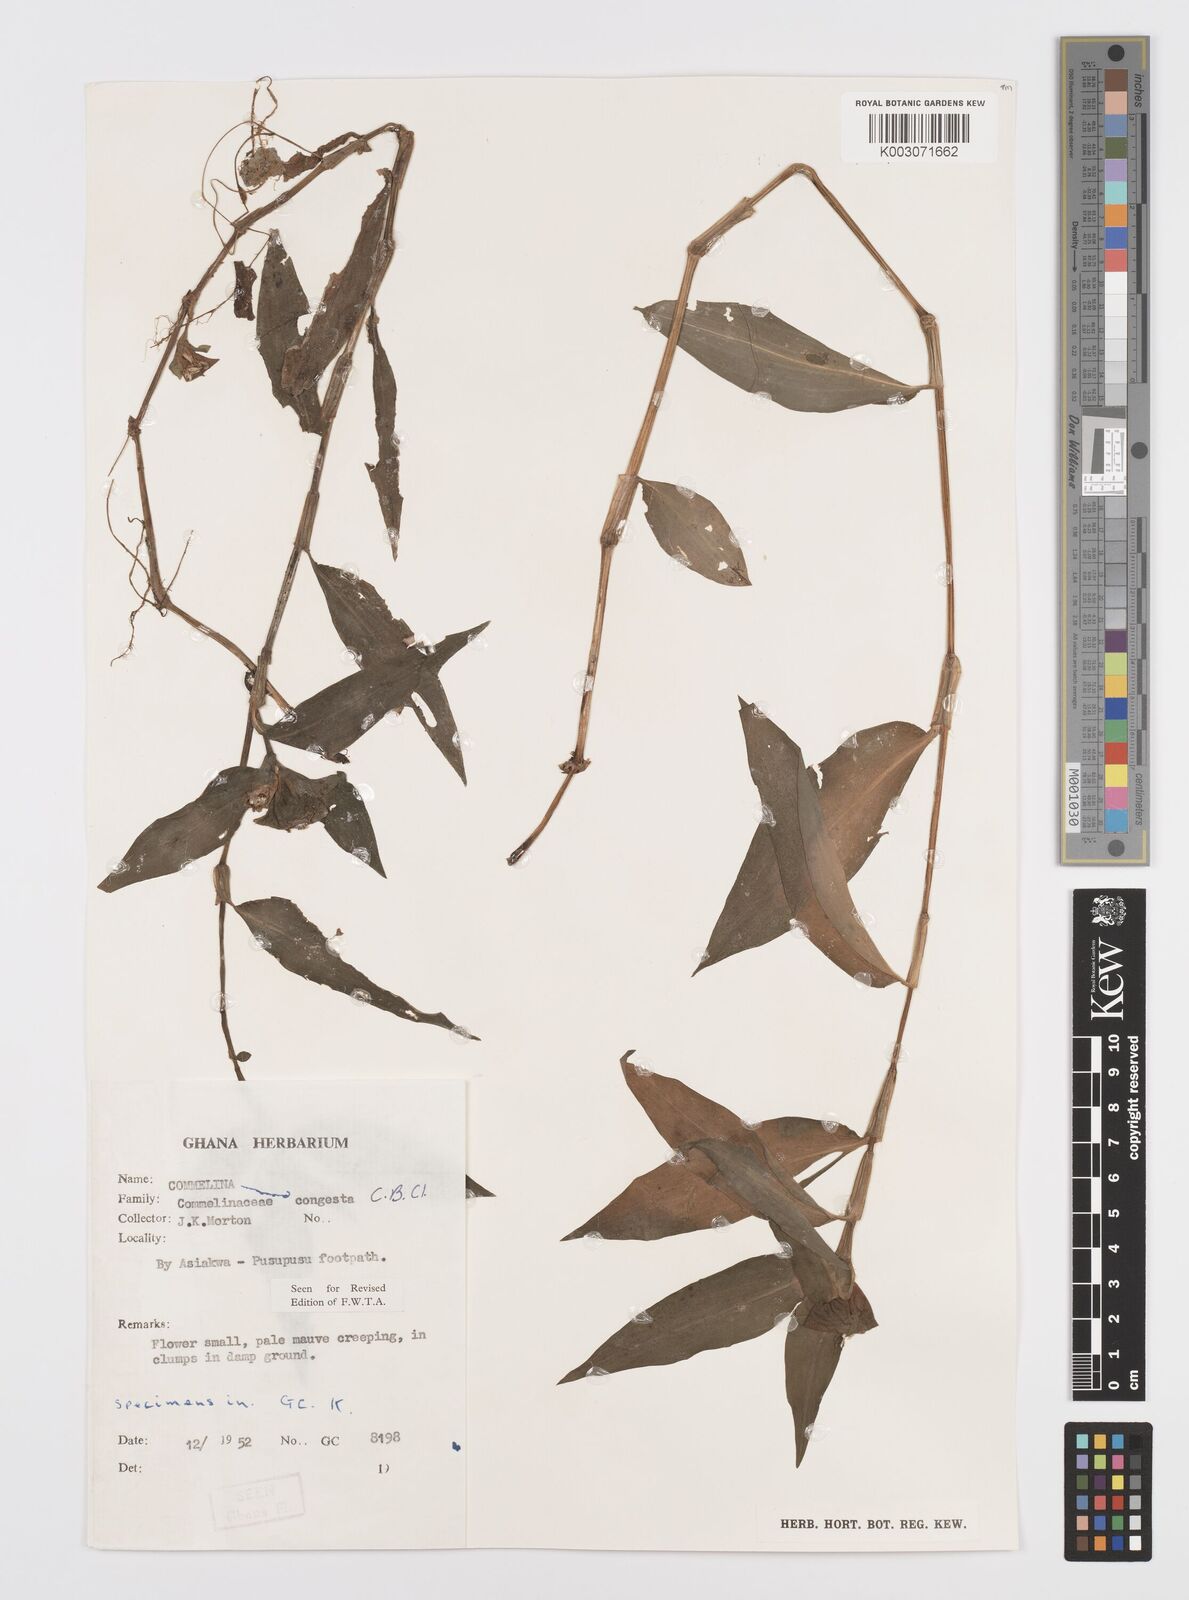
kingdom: Plantae
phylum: Tracheophyta
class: Liliopsida
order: Commelinales
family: Commelinaceae
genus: Commelina
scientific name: Commelina congesta
